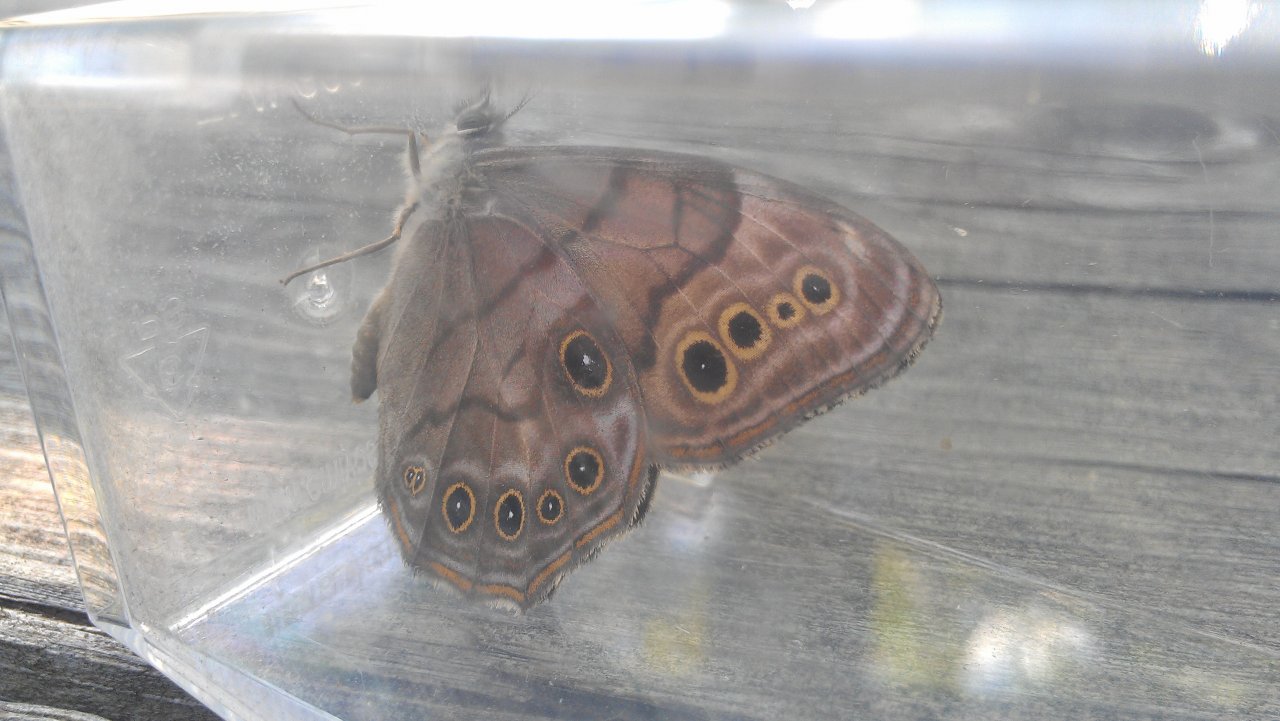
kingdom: Animalia
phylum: Arthropoda
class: Insecta
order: Lepidoptera
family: Nymphalidae
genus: Lethe
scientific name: Lethe anthedon
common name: Northern Pearly-Eye
